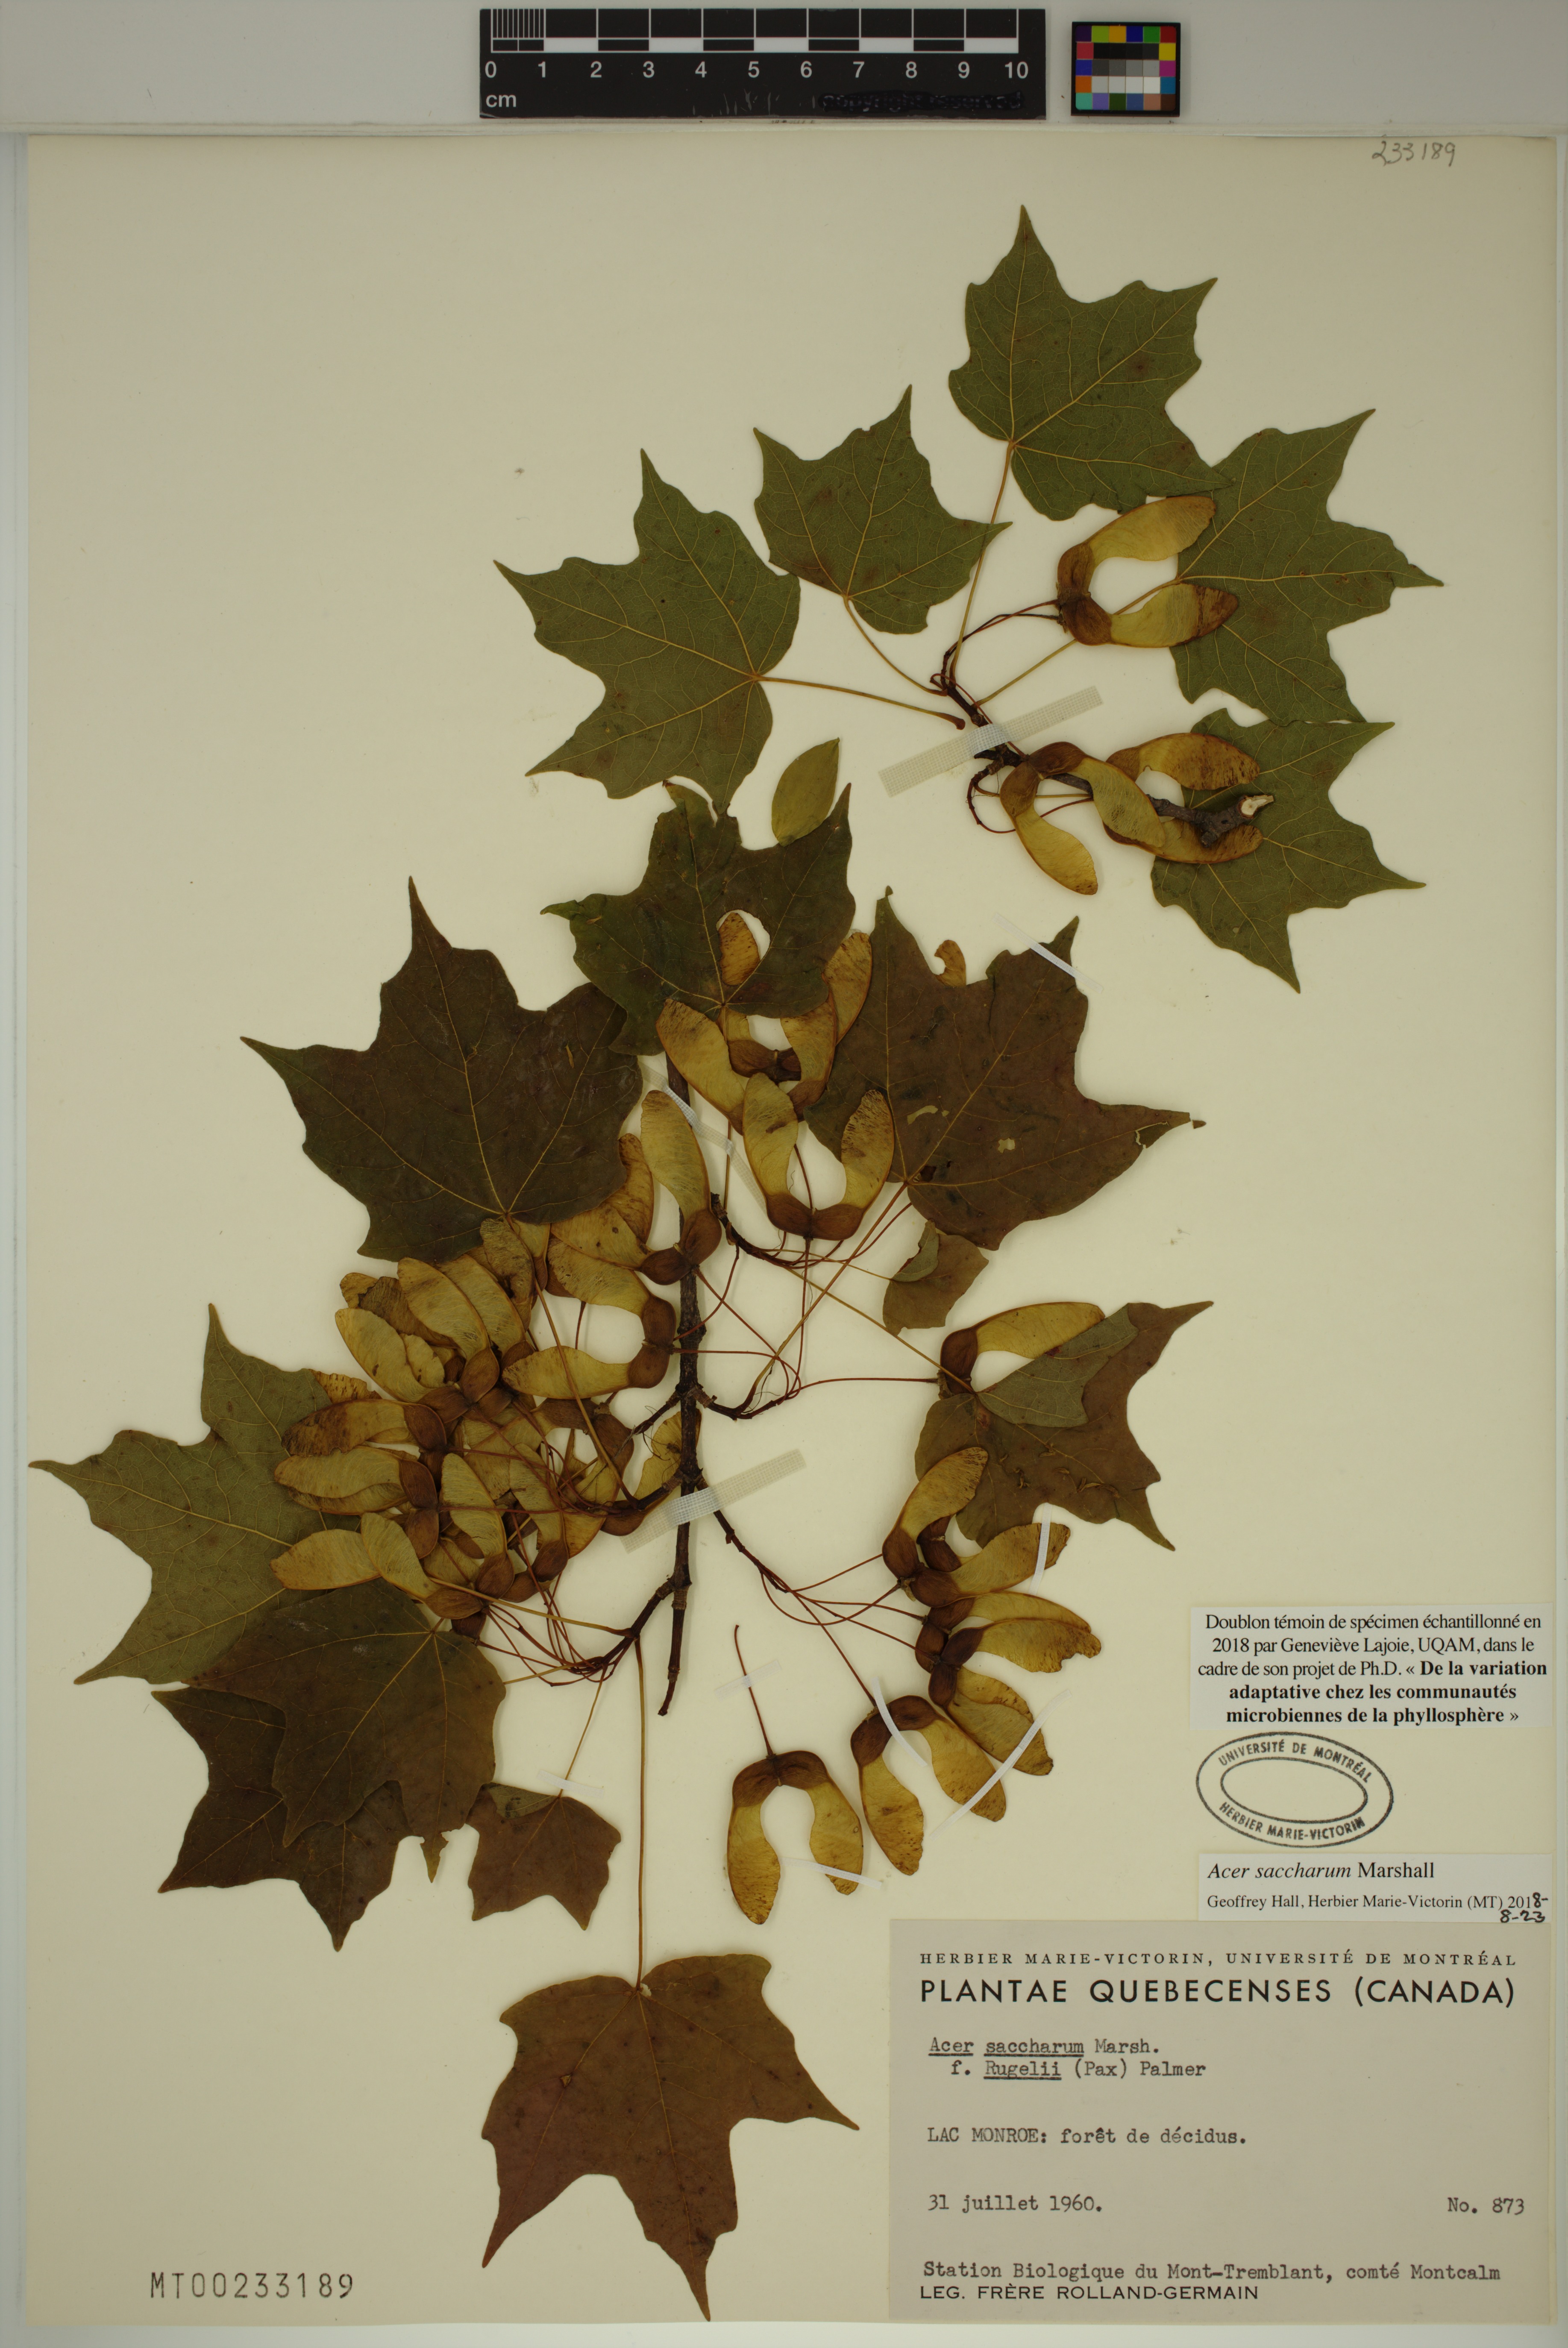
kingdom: Plantae
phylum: Tracheophyta
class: Magnoliopsida
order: Sapindales
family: Sapindaceae
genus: Acer
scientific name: Acer saccharum
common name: Sugar maple
